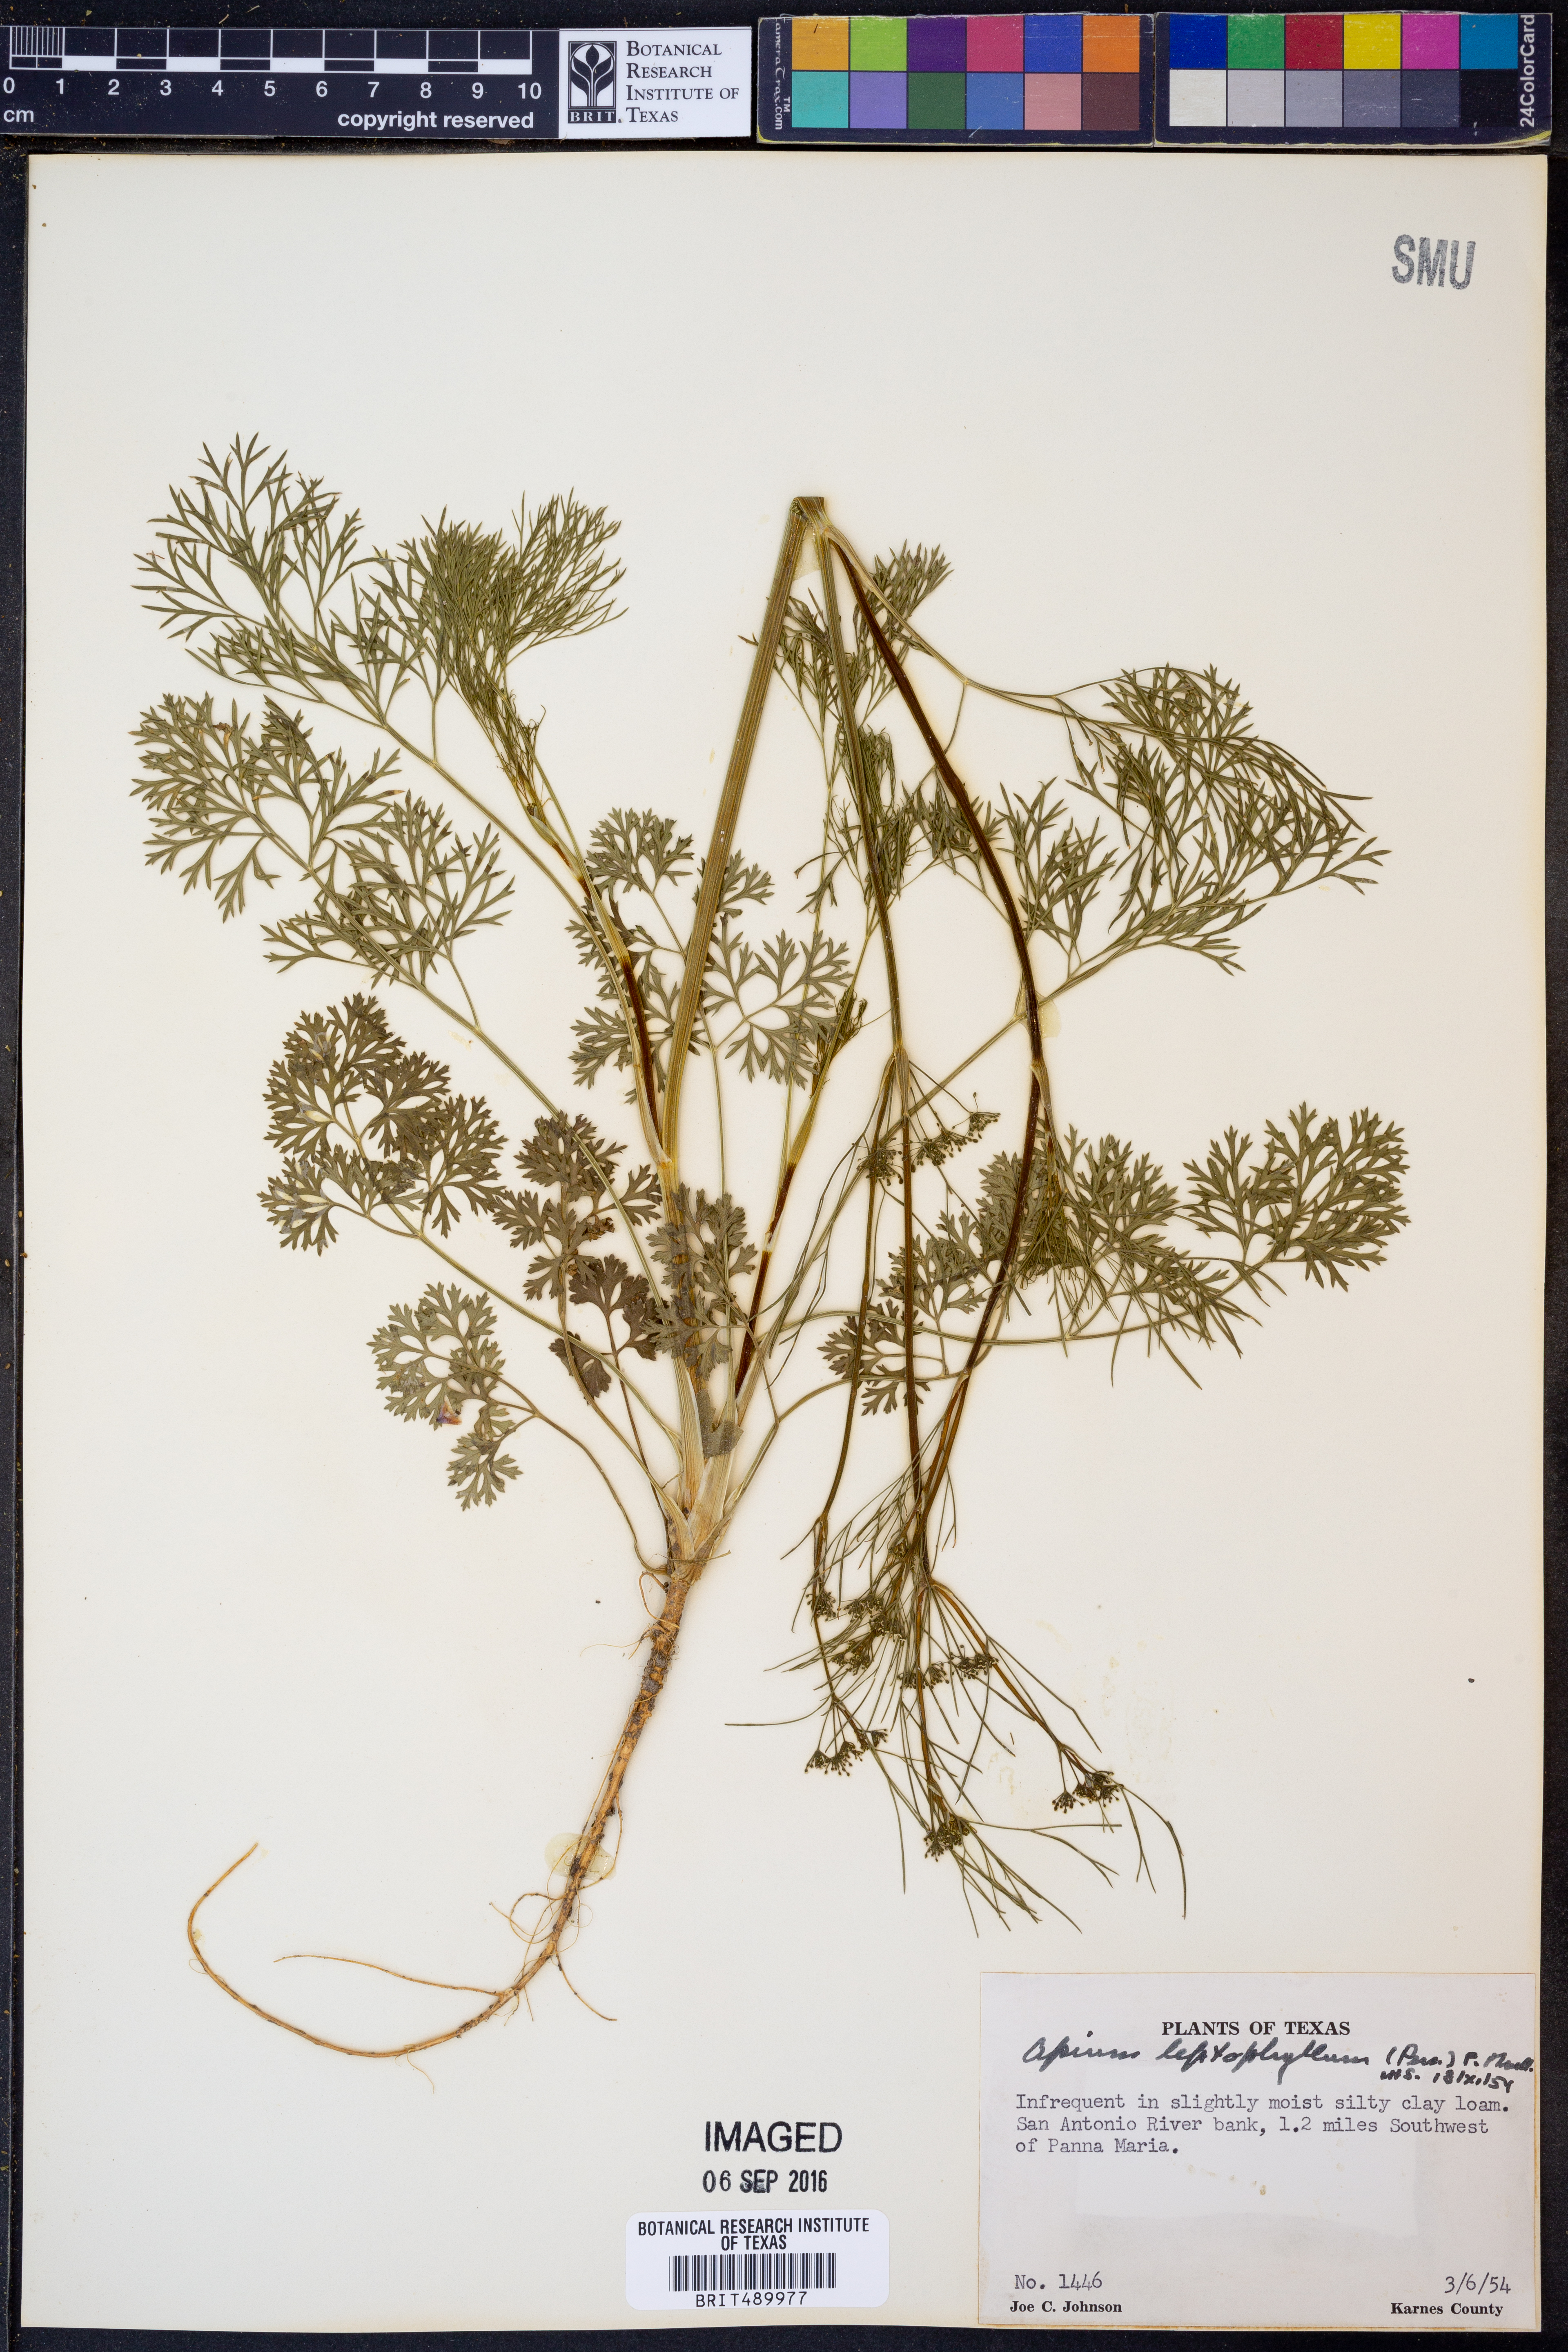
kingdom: Plantae
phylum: Tracheophyta
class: Magnoliopsida
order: Apiales
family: Apiaceae
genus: Cyclospermum
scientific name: Cyclospermum leptophyllum
